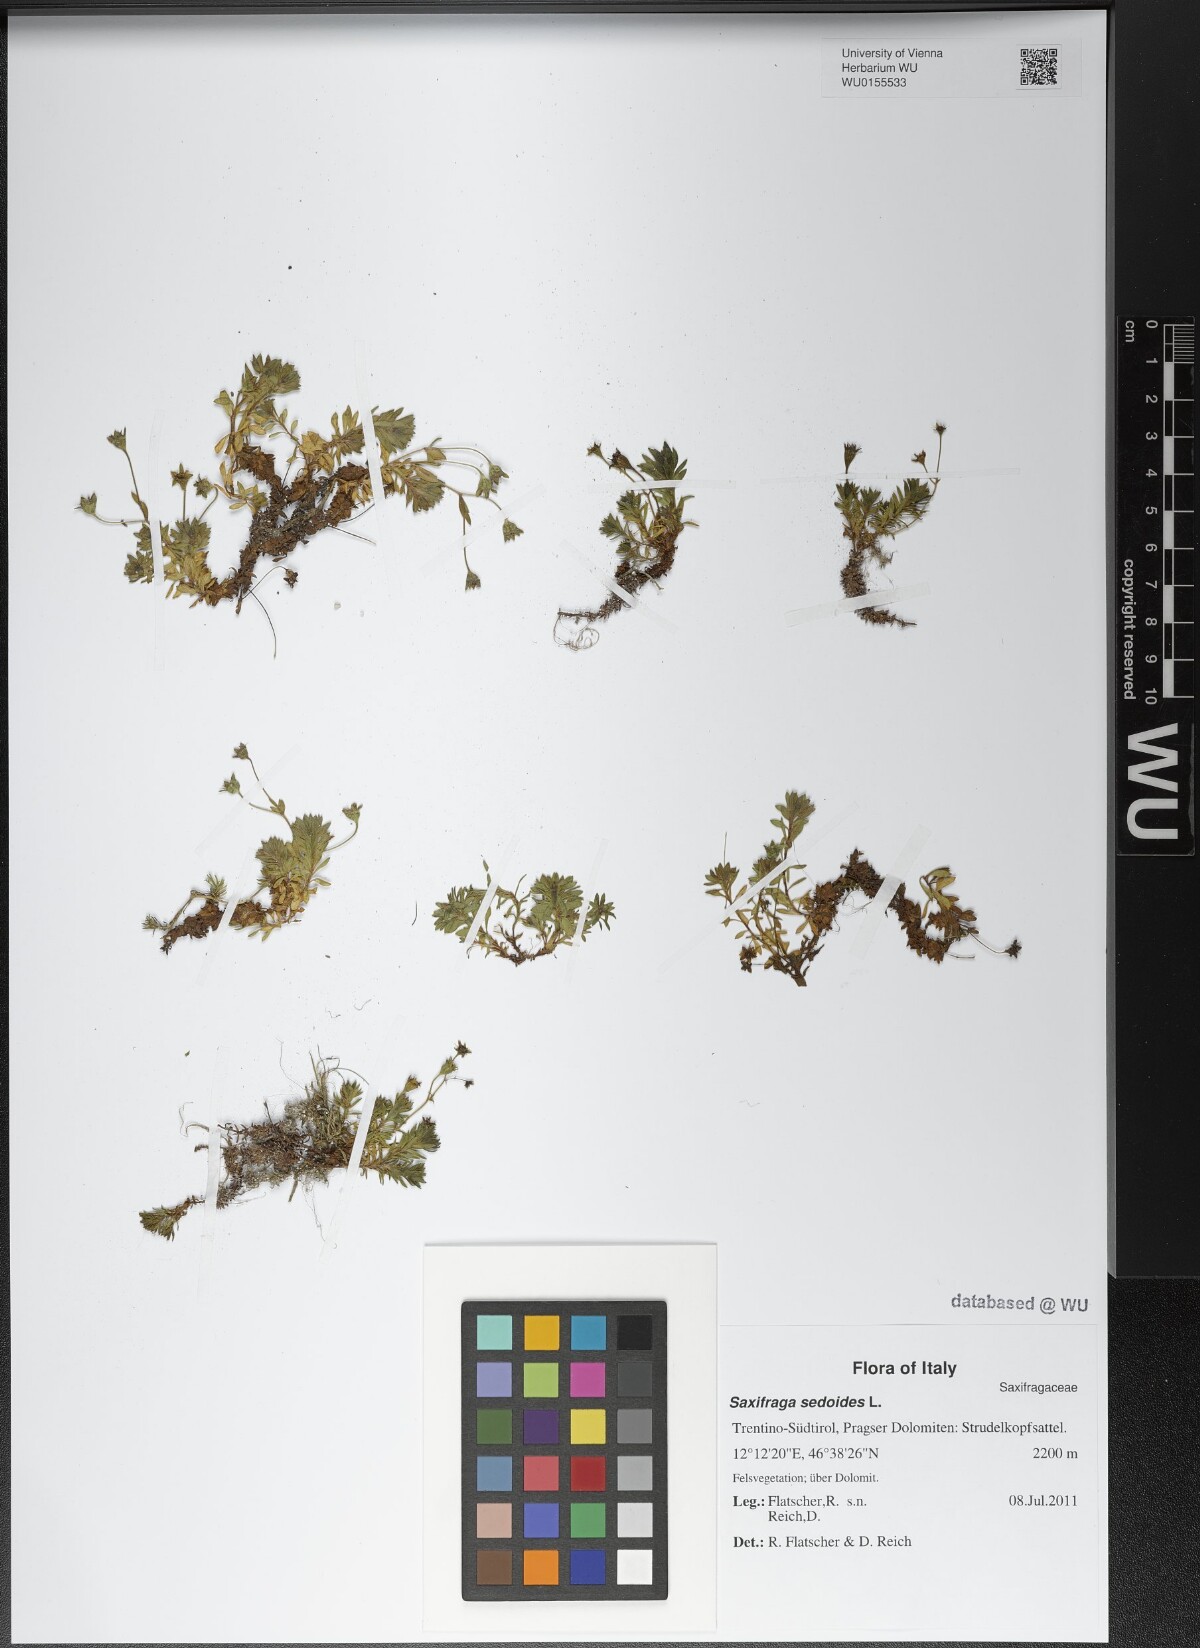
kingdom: Plantae
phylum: Tracheophyta
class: Magnoliopsida
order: Saxifragales
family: Saxifragaceae
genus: Saxifraga
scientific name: Saxifraga sedoides
